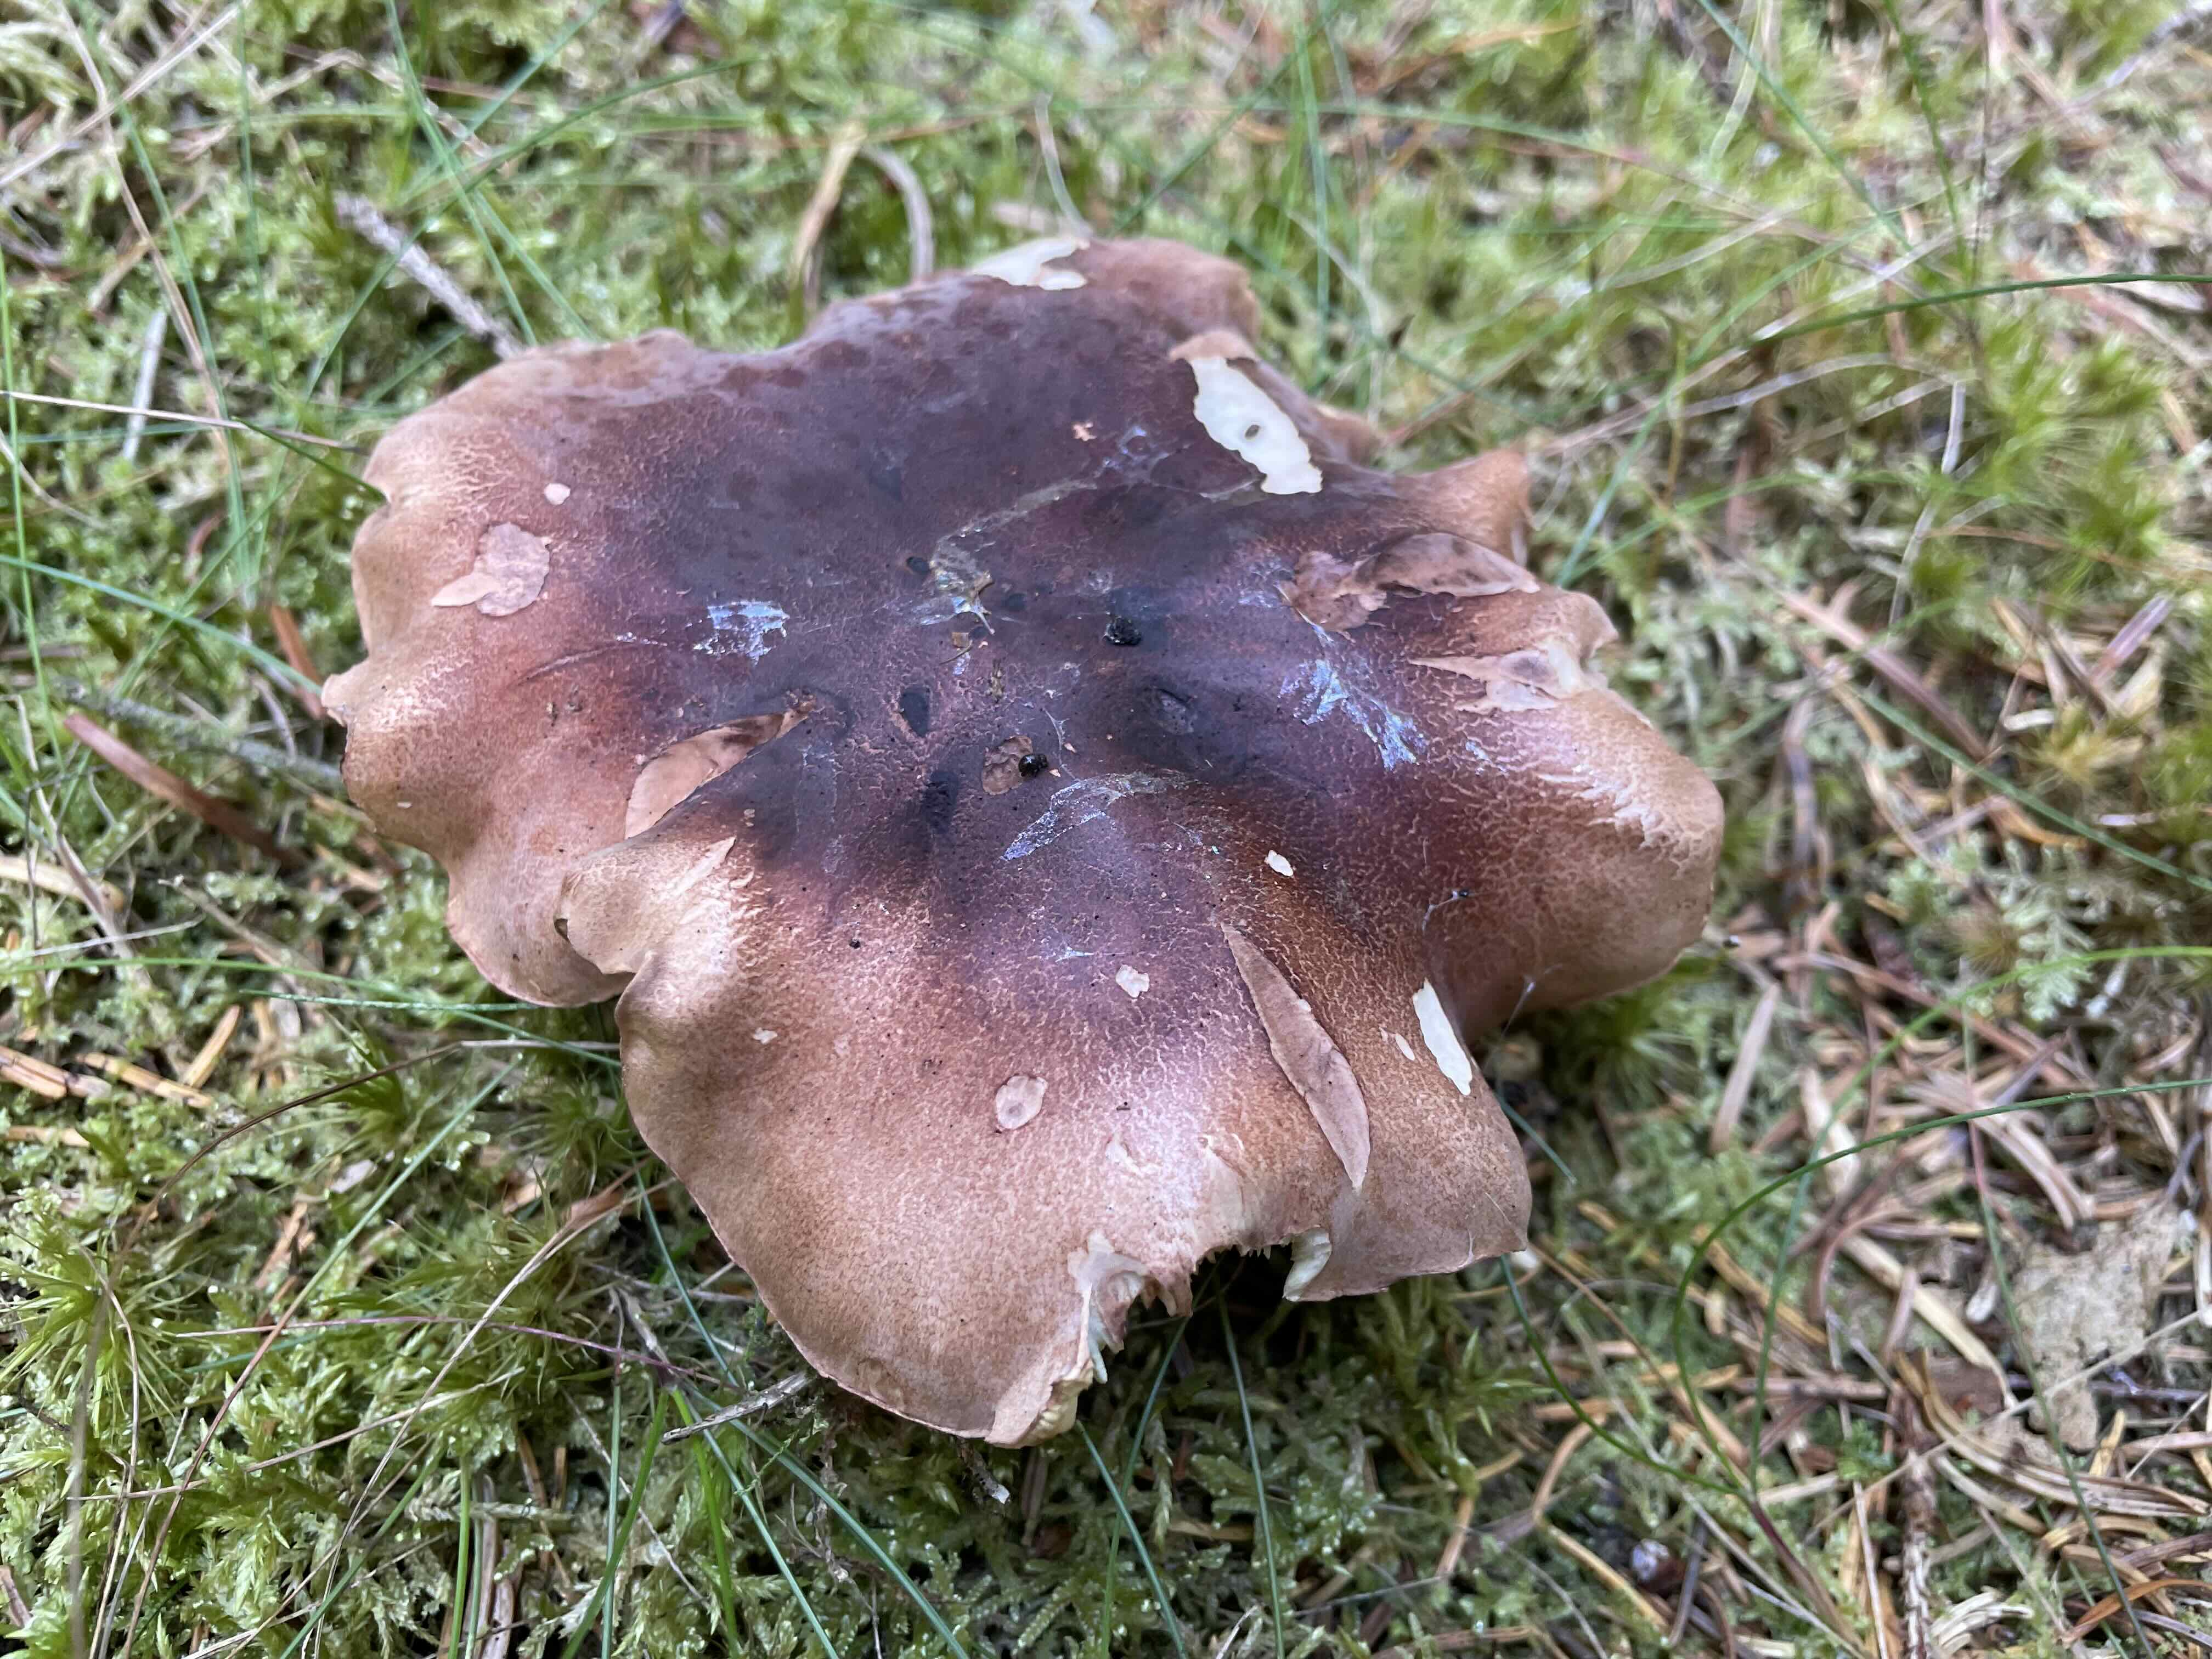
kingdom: Fungi
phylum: Basidiomycota
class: Agaricomycetes
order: Agaricales
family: Tricholomataceae
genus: Tricholoma
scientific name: Tricholoma fulvum
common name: birke-ridderhat
